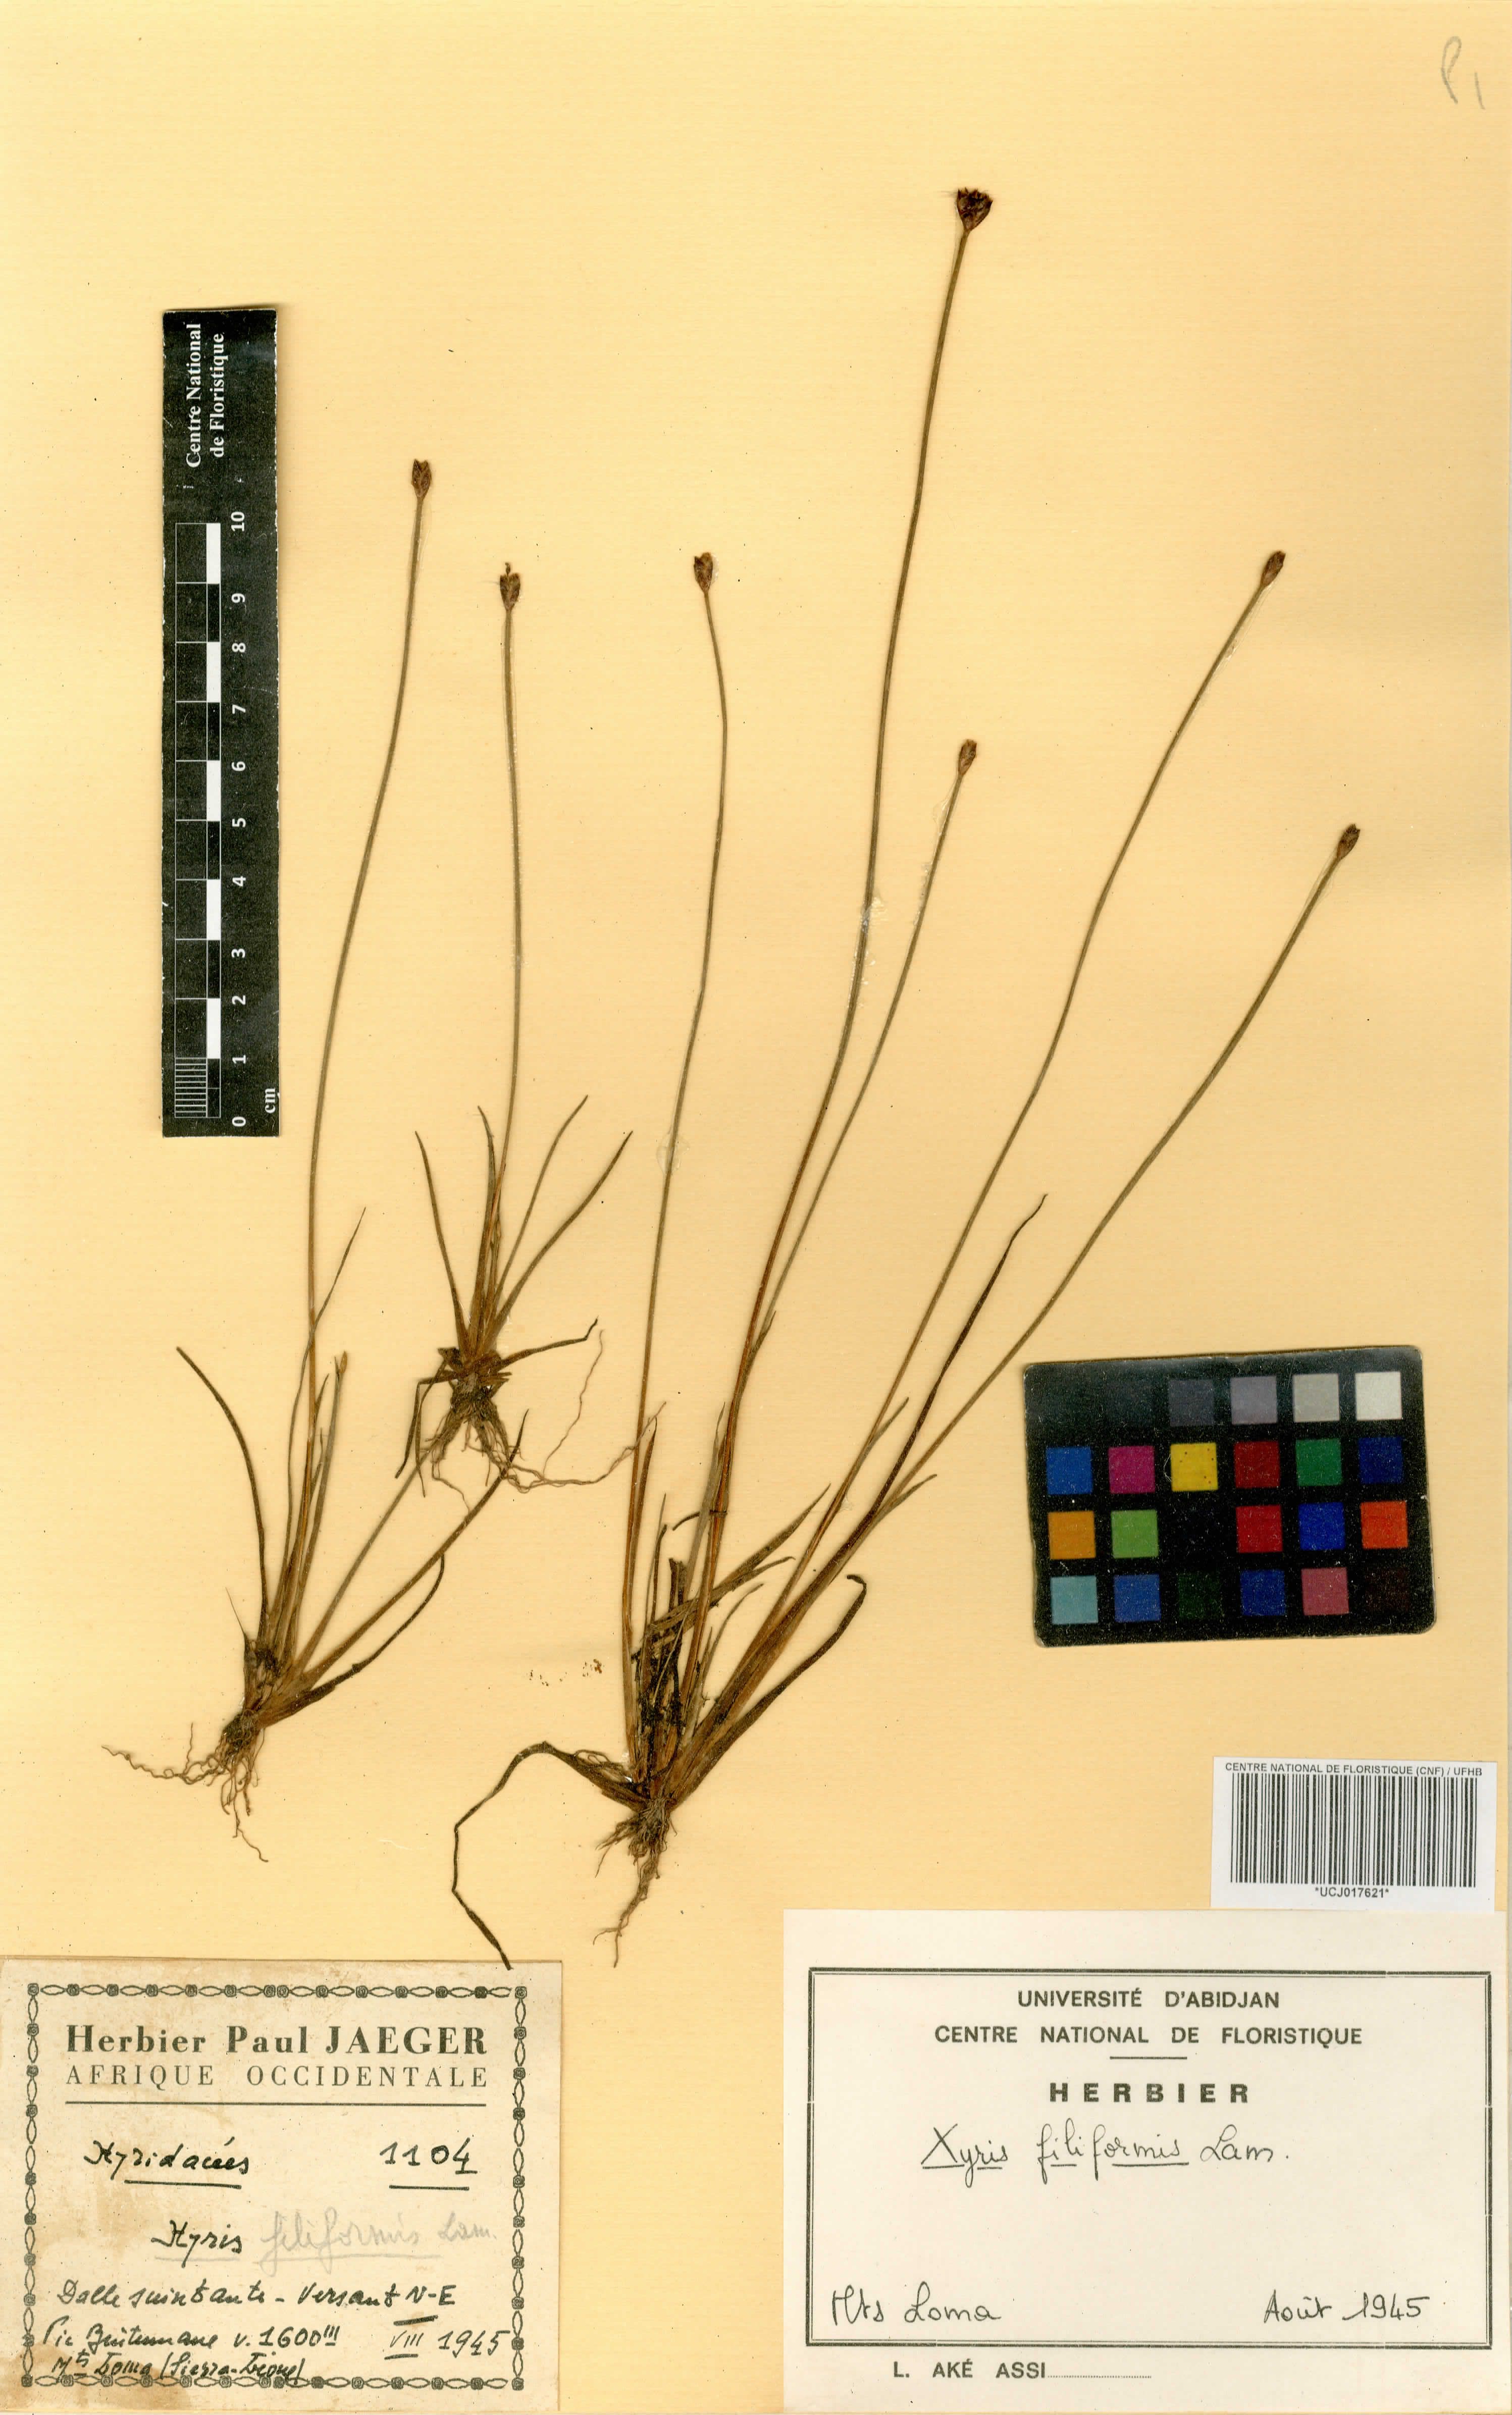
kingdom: Plantae
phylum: Tracheophyta
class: Liliopsida
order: Poales
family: Xyridaceae
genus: Xyris
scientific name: Xyris filiformis
